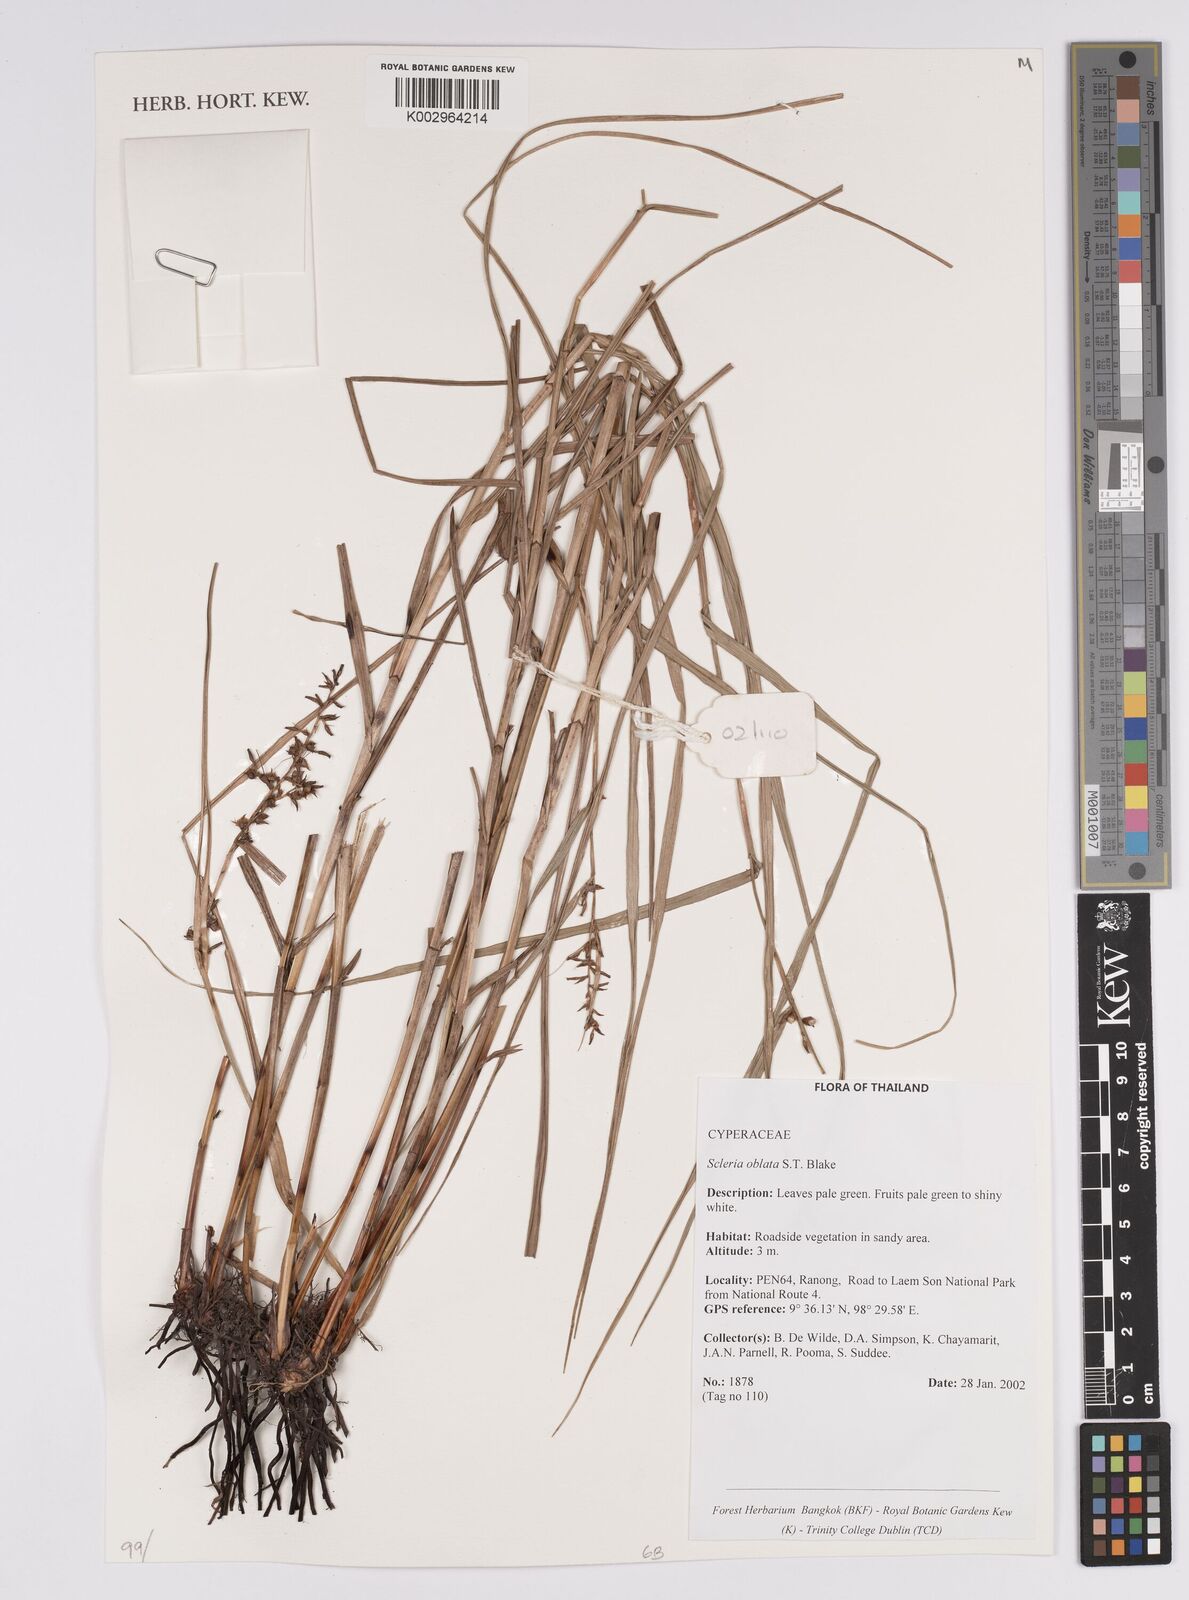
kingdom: Plantae
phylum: Tracheophyta
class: Liliopsida
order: Poales
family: Cyperaceae
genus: Scleria
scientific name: Scleria oblata
